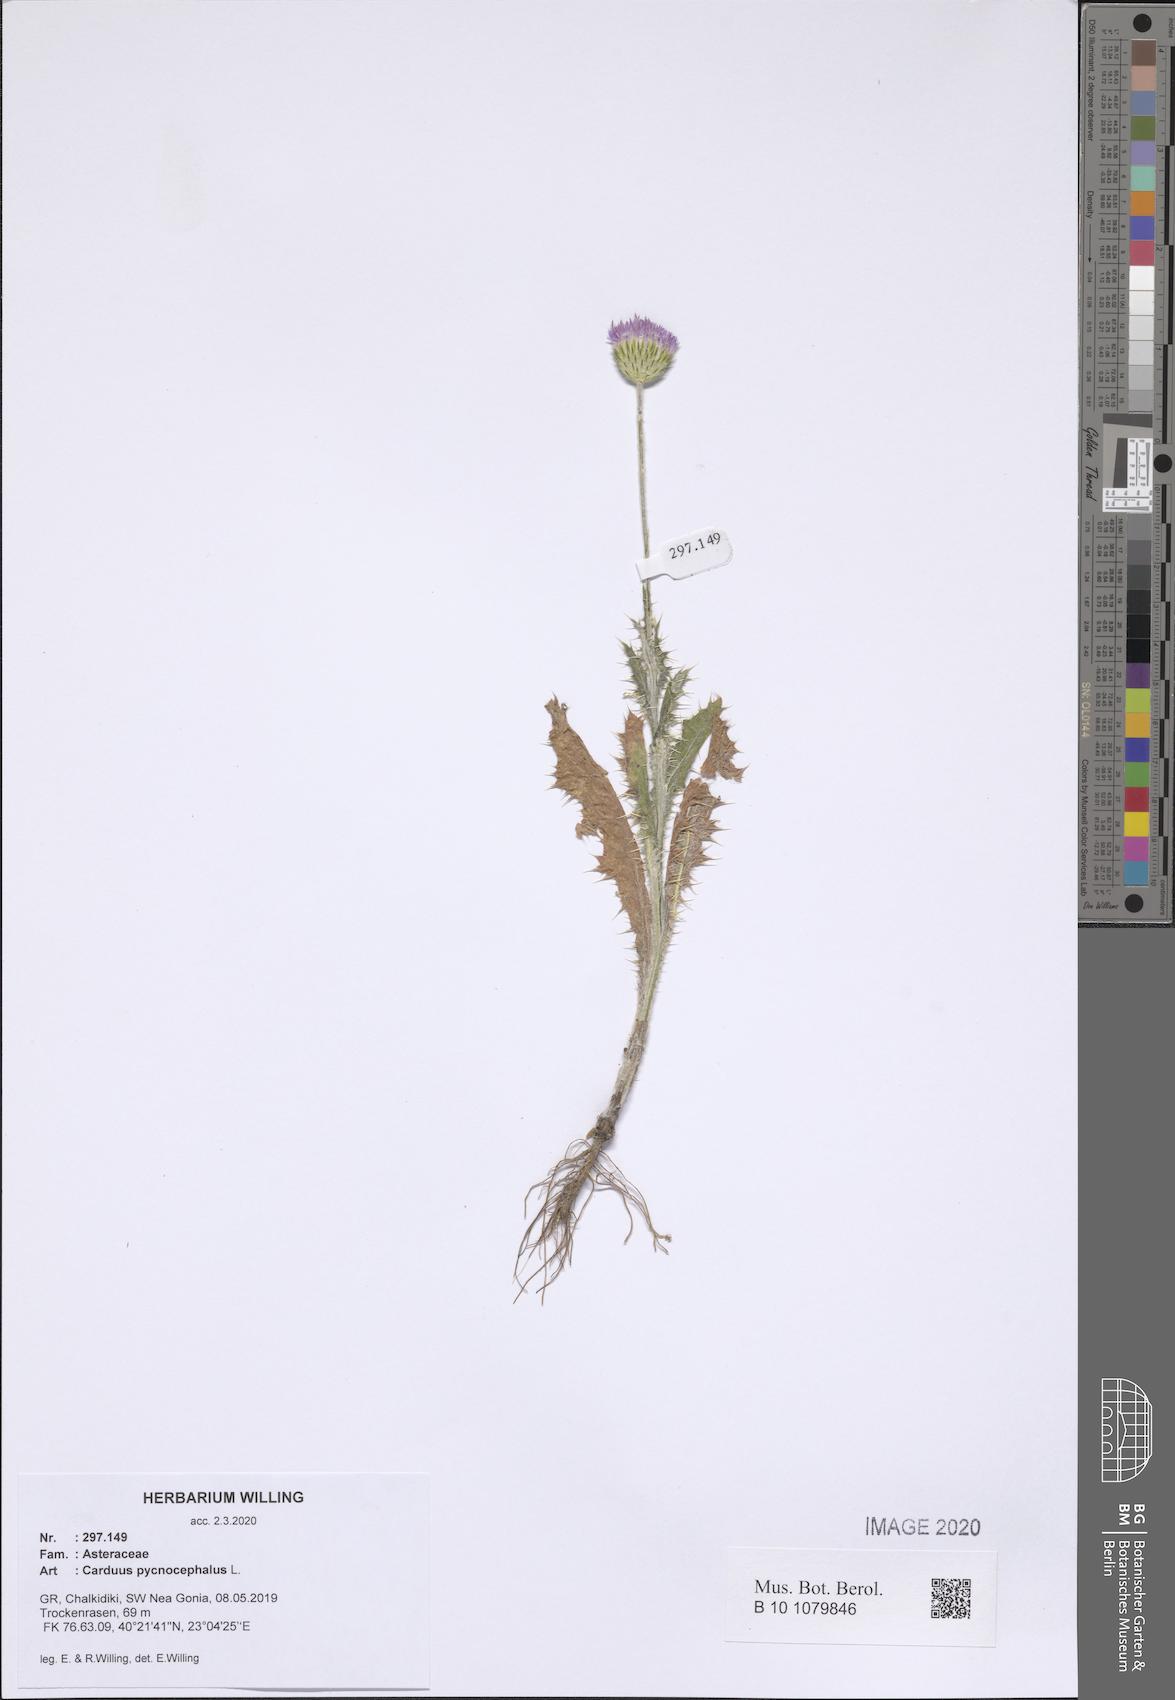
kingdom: Plantae
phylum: Tracheophyta
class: Magnoliopsida
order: Asterales
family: Asteraceae
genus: Carduus
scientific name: Carduus pycnocephalus
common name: Plymouth thistle
